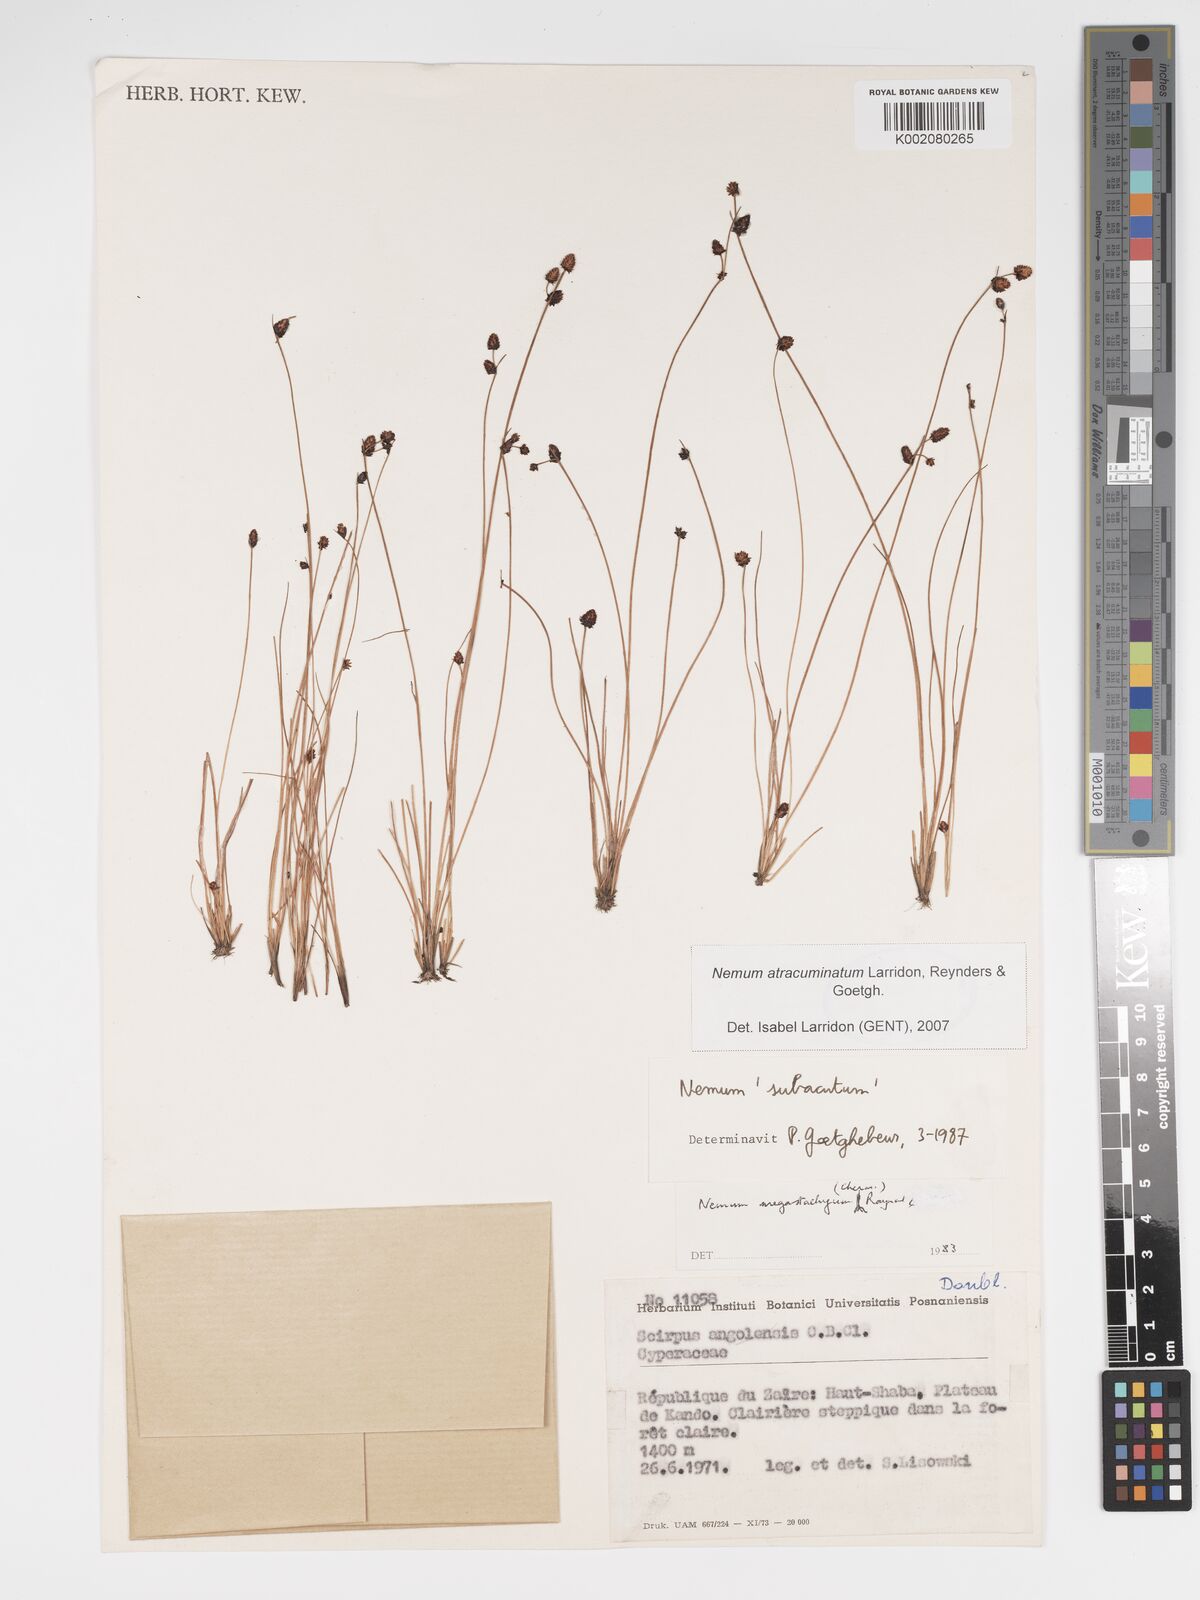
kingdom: Plantae
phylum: Tracheophyta
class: Liliopsida
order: Poales
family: Cyperaceae
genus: Bulbostylis
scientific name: Bulbostylis atracuminata
